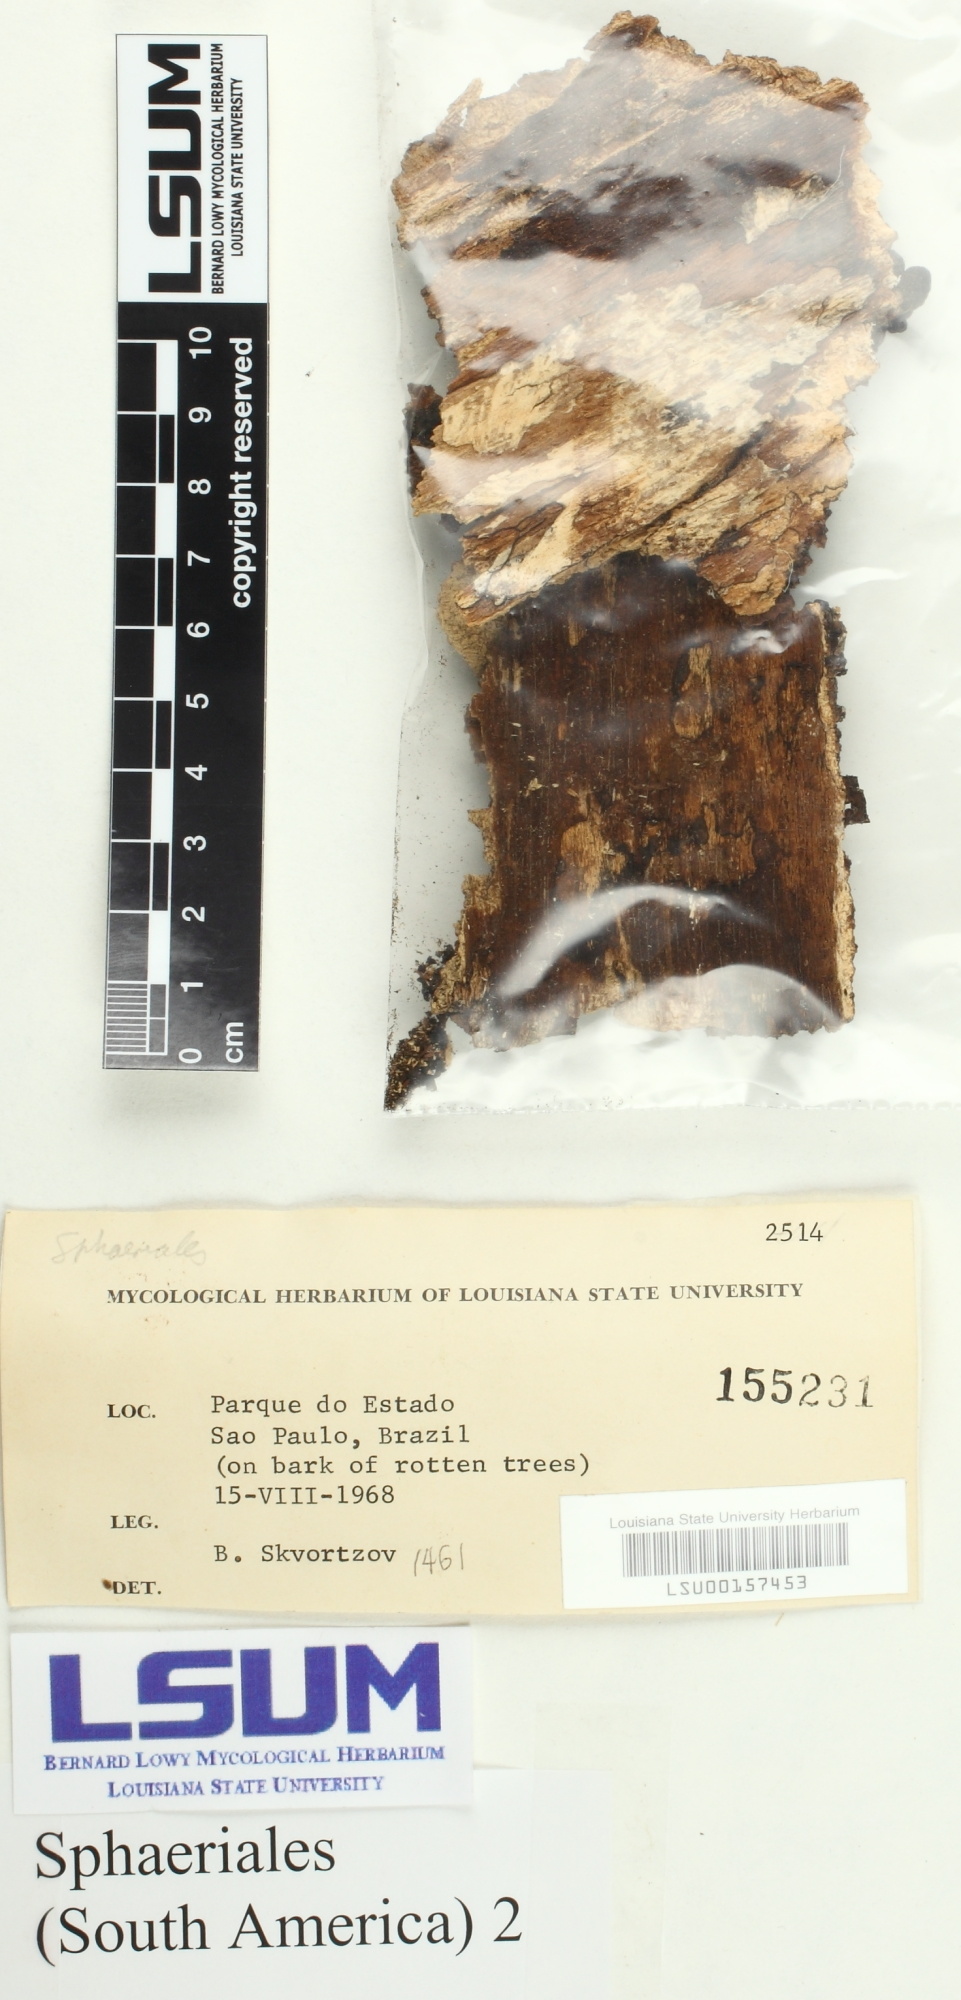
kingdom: Fungi
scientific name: Fungi
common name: Fungi
